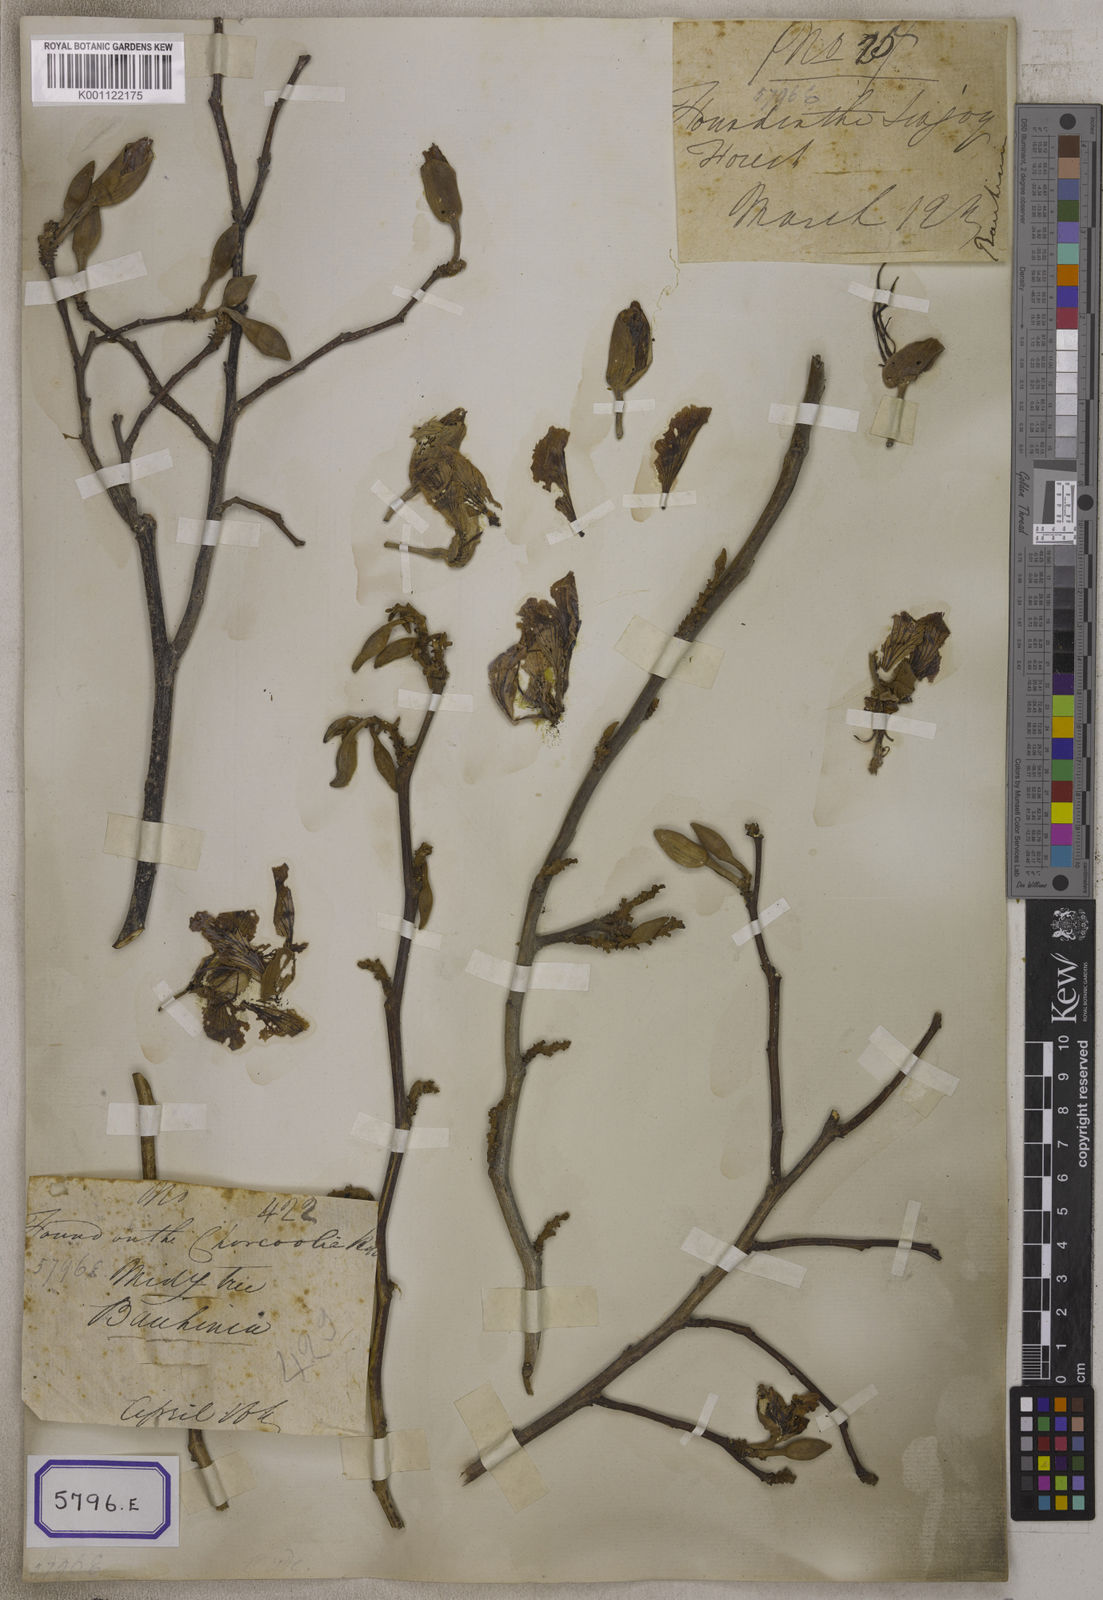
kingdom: Plantae
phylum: Tracheophyta
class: Magnoliopsida
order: Fabales
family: Fabaceae
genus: Bauhinia
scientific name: Bauhinia variegata
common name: Mountain ebony
